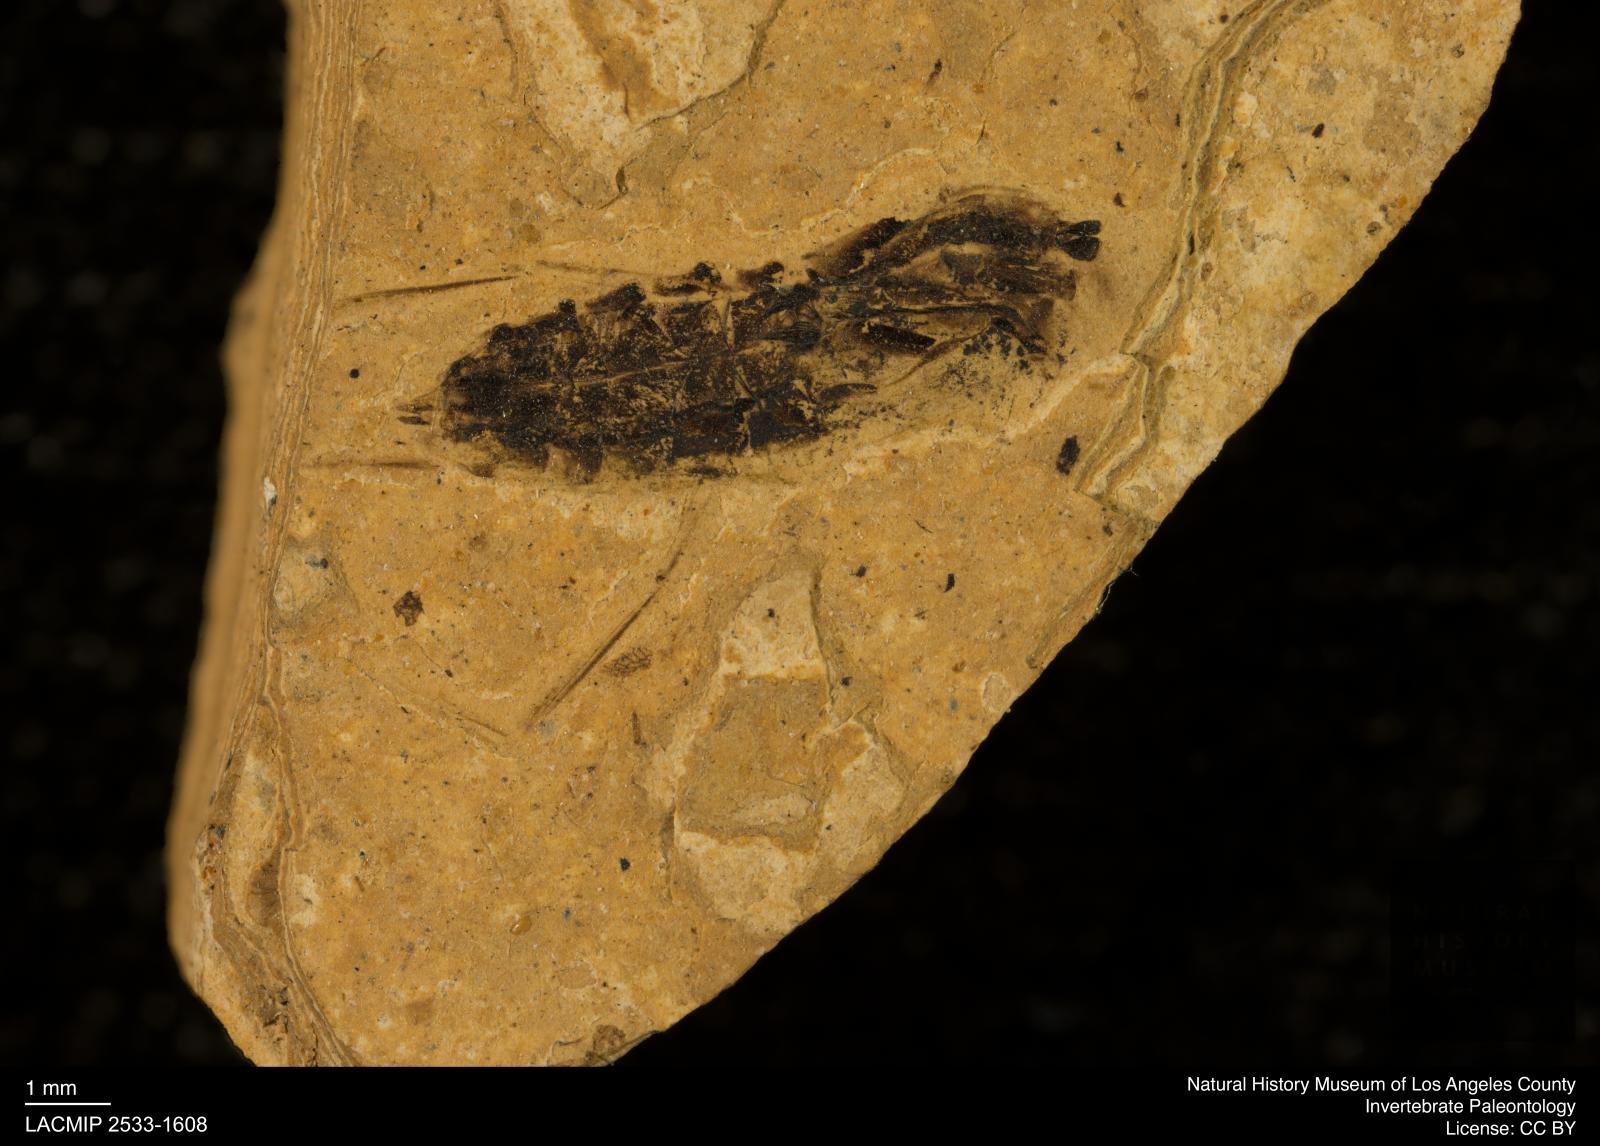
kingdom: Animalia
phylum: Arthropoda
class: Insecta
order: Hemiptera
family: Notonectidae
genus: Notonecta
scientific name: Notonecta
